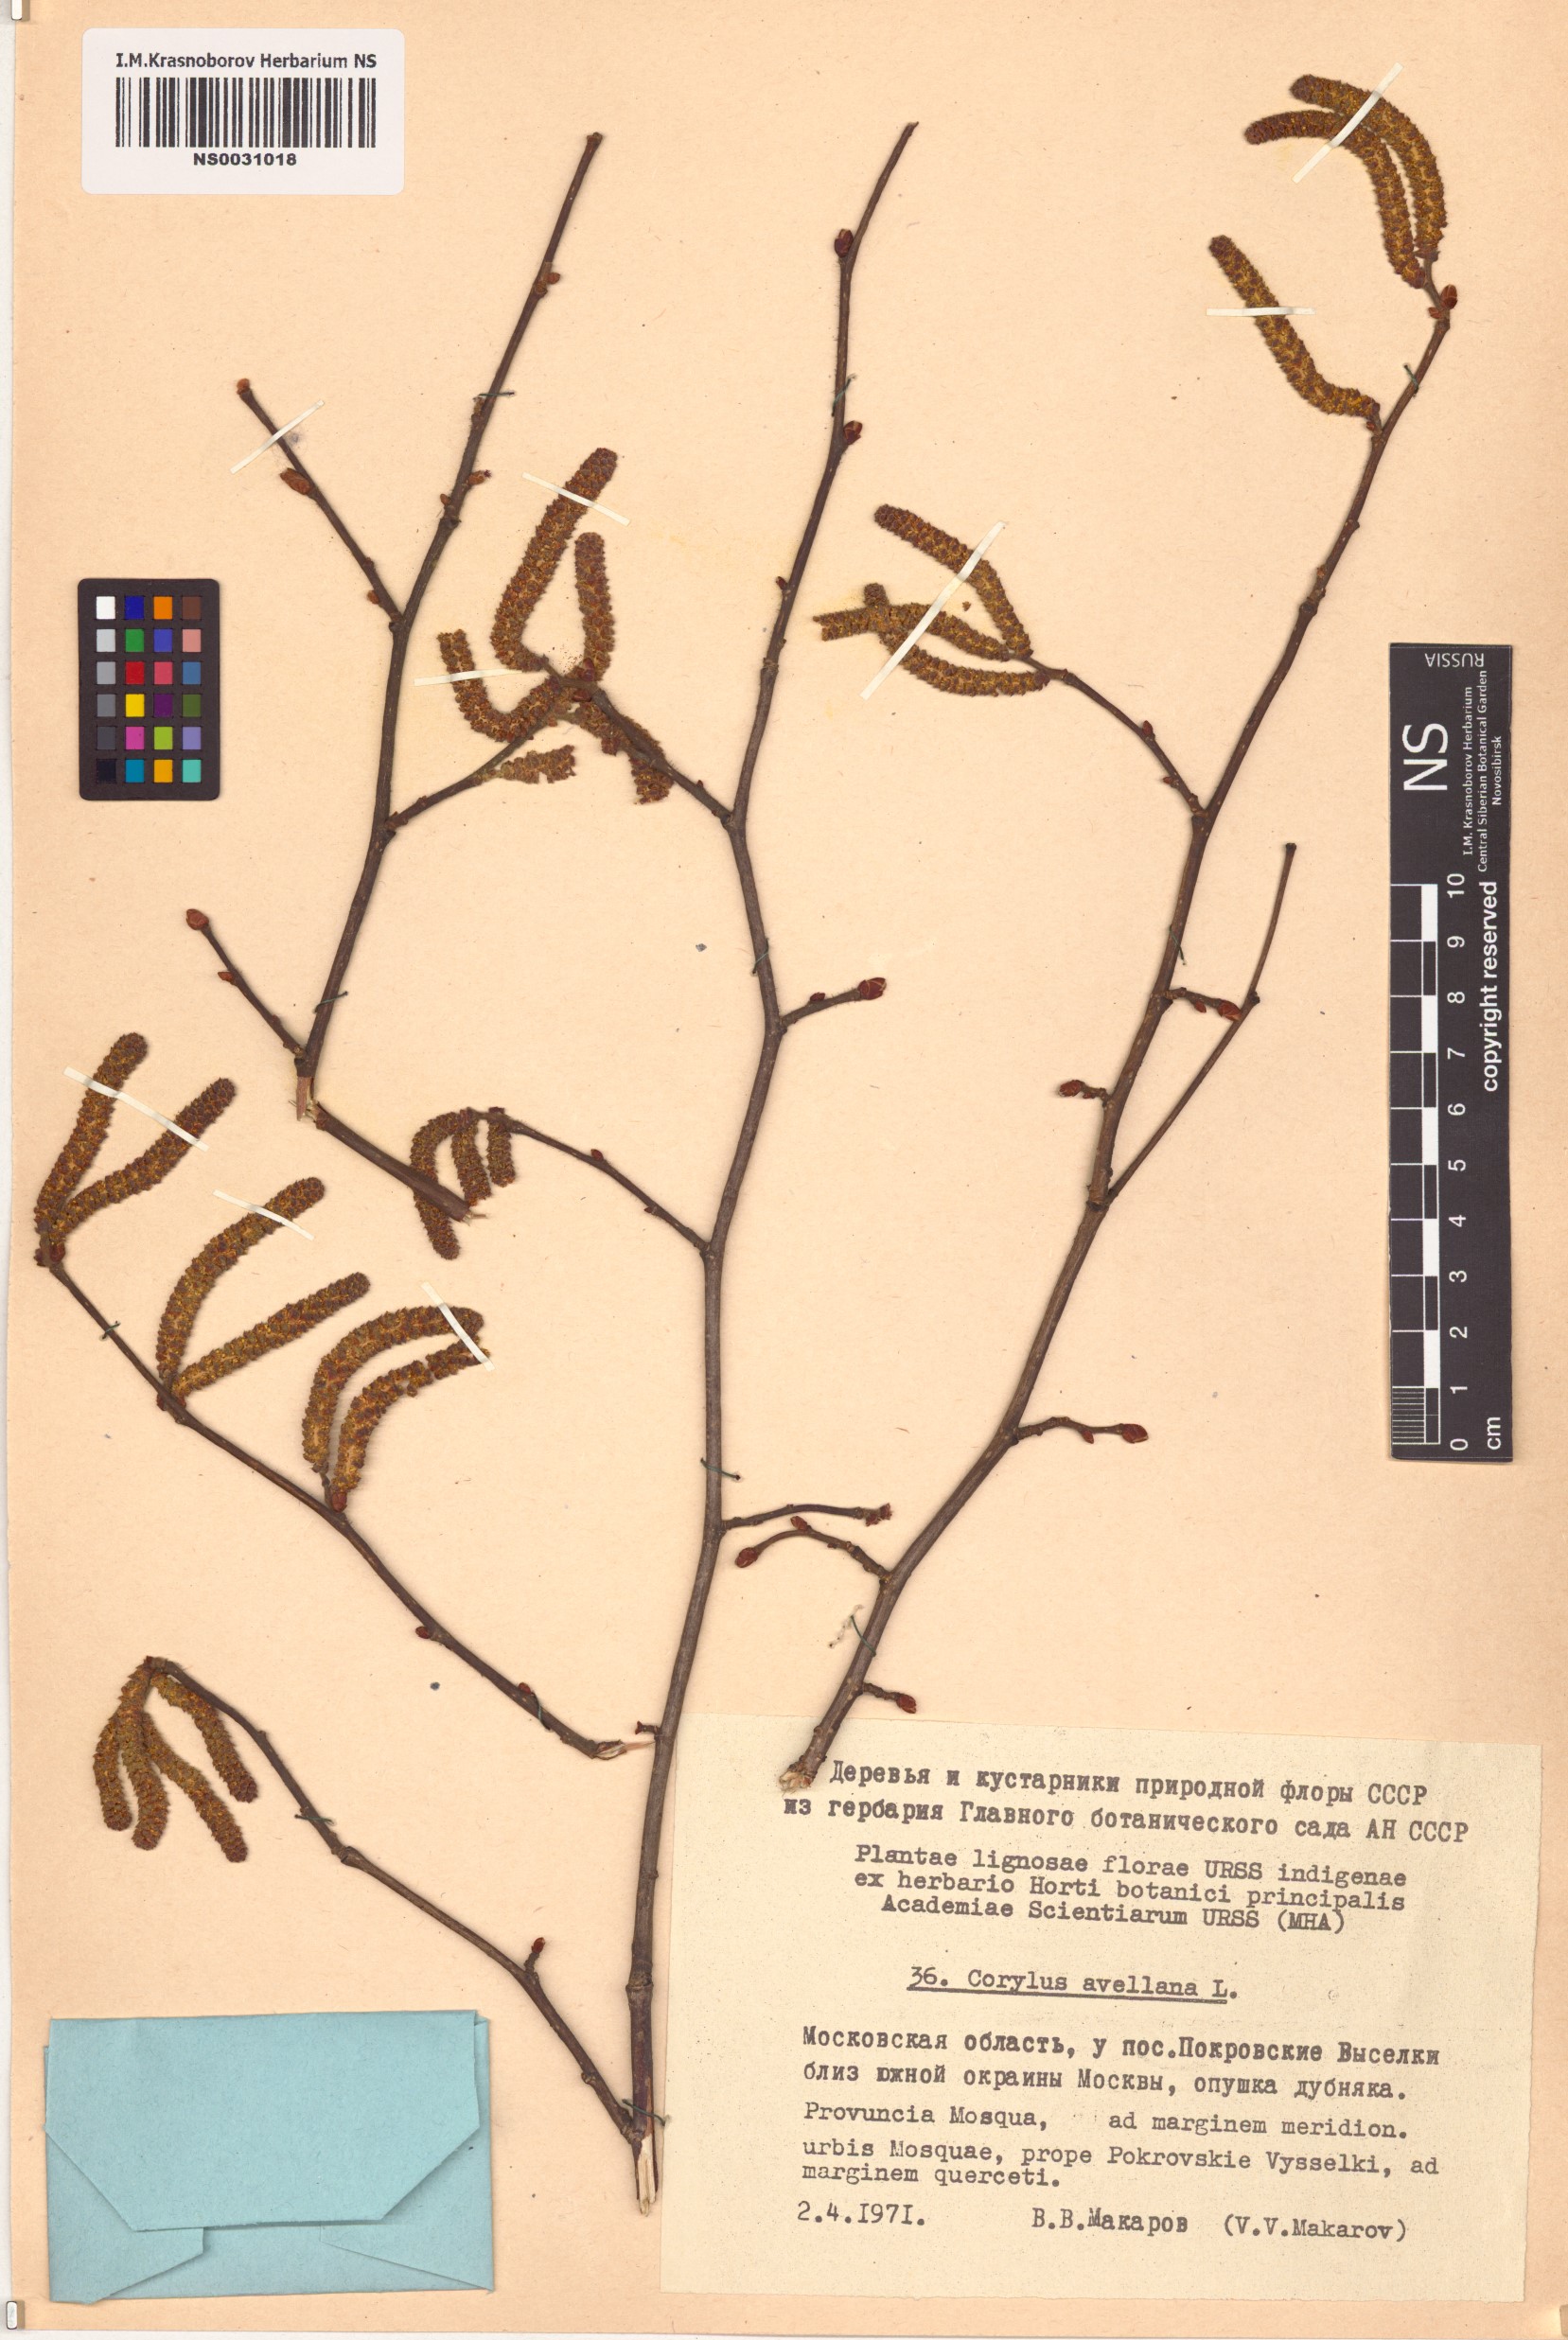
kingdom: Plantae
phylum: Tracheophyta
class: Magnoliopsida
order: Fagales
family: Betulaceae
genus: Corylus
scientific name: Corylus avellana
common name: European hazel
